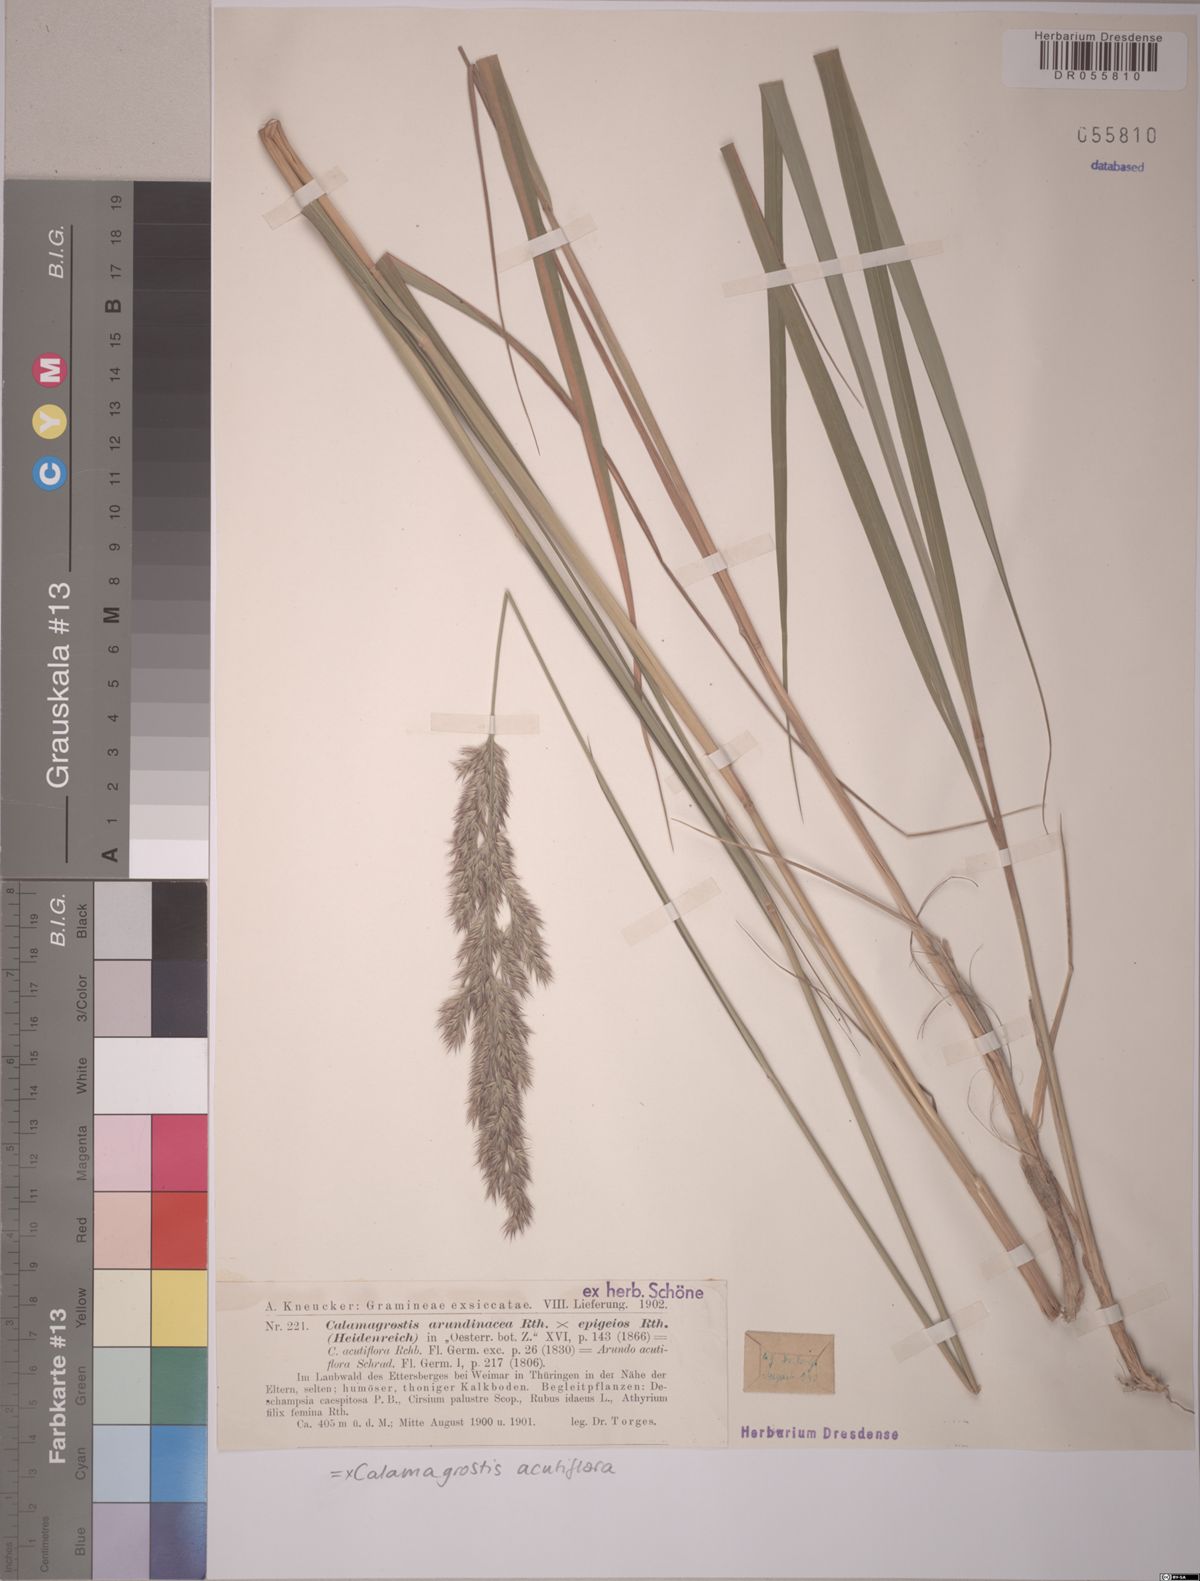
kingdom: Plantae
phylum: Tracheophyta
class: Liliopsida
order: Poales
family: Poaceae
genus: Calamagrostis
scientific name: Calamagrostis acutiflora
